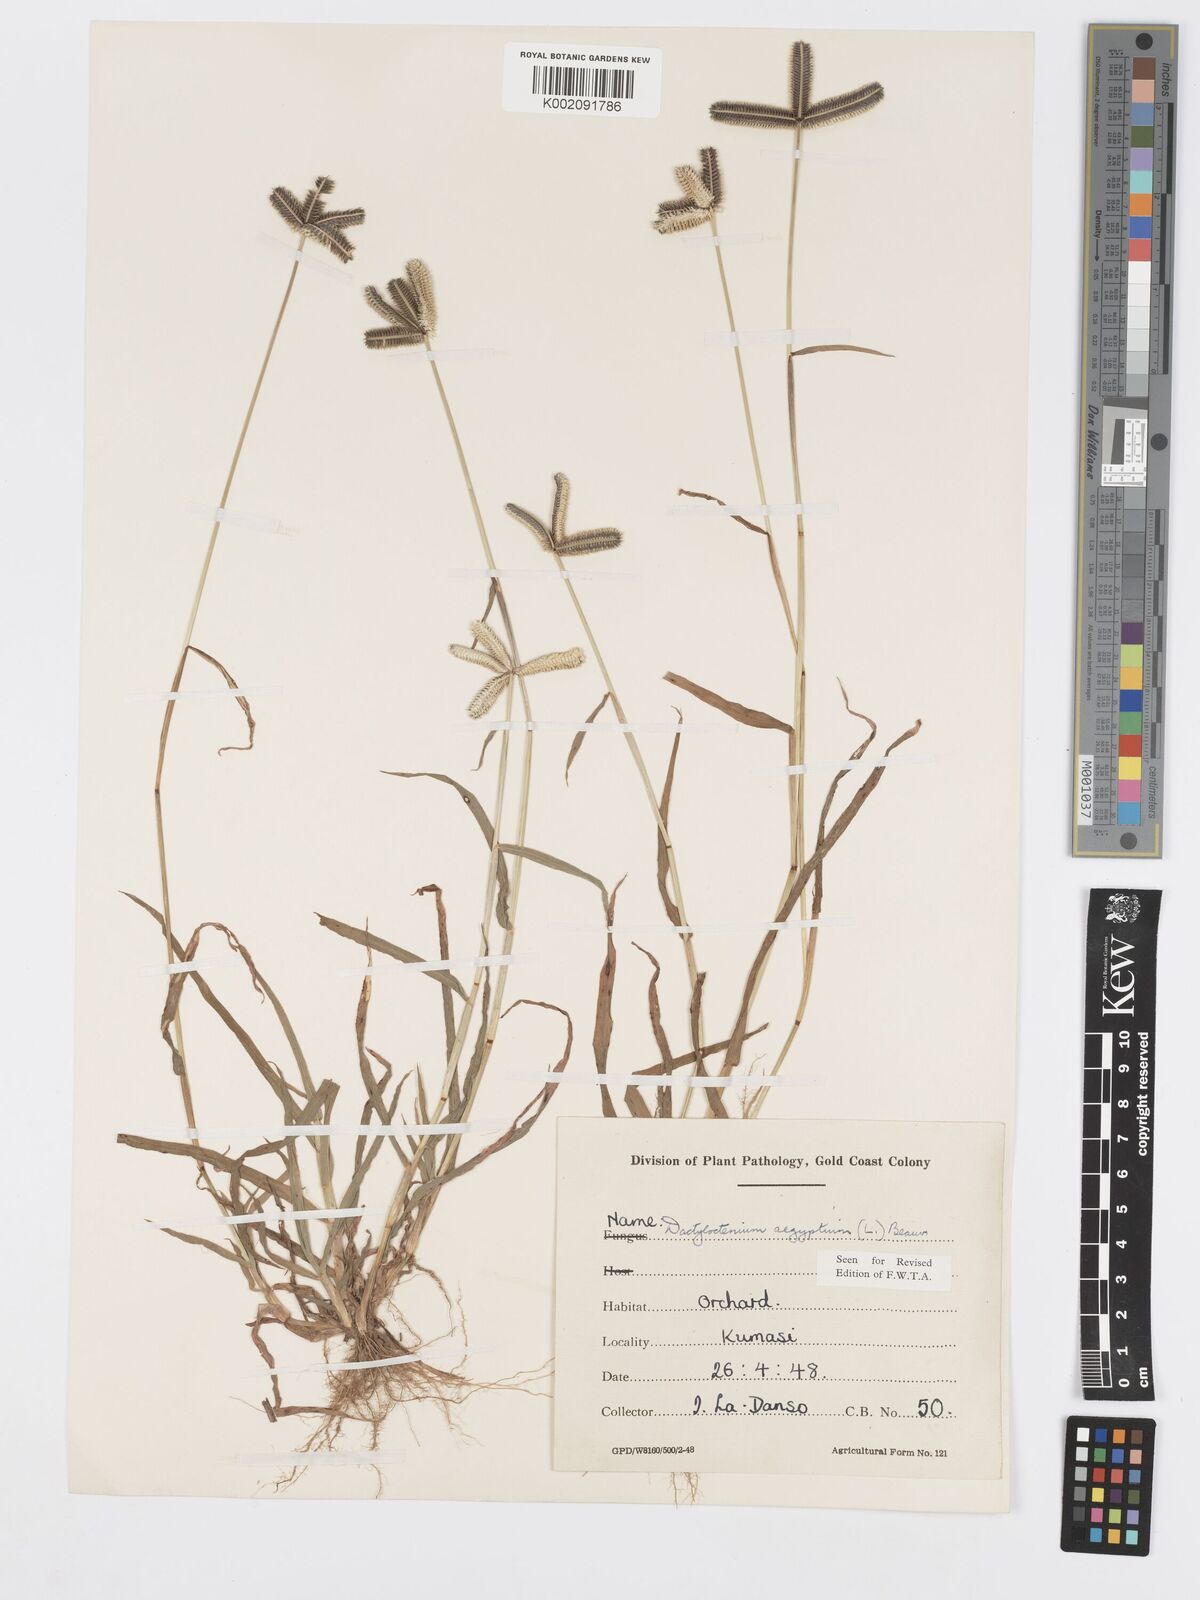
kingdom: Plantae
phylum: Tracheophyta
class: Liliopsida
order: Poales
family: Poaceae
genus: Dactyloctenium
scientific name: Dactyloctenium aegyptium
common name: Egyptian grass
